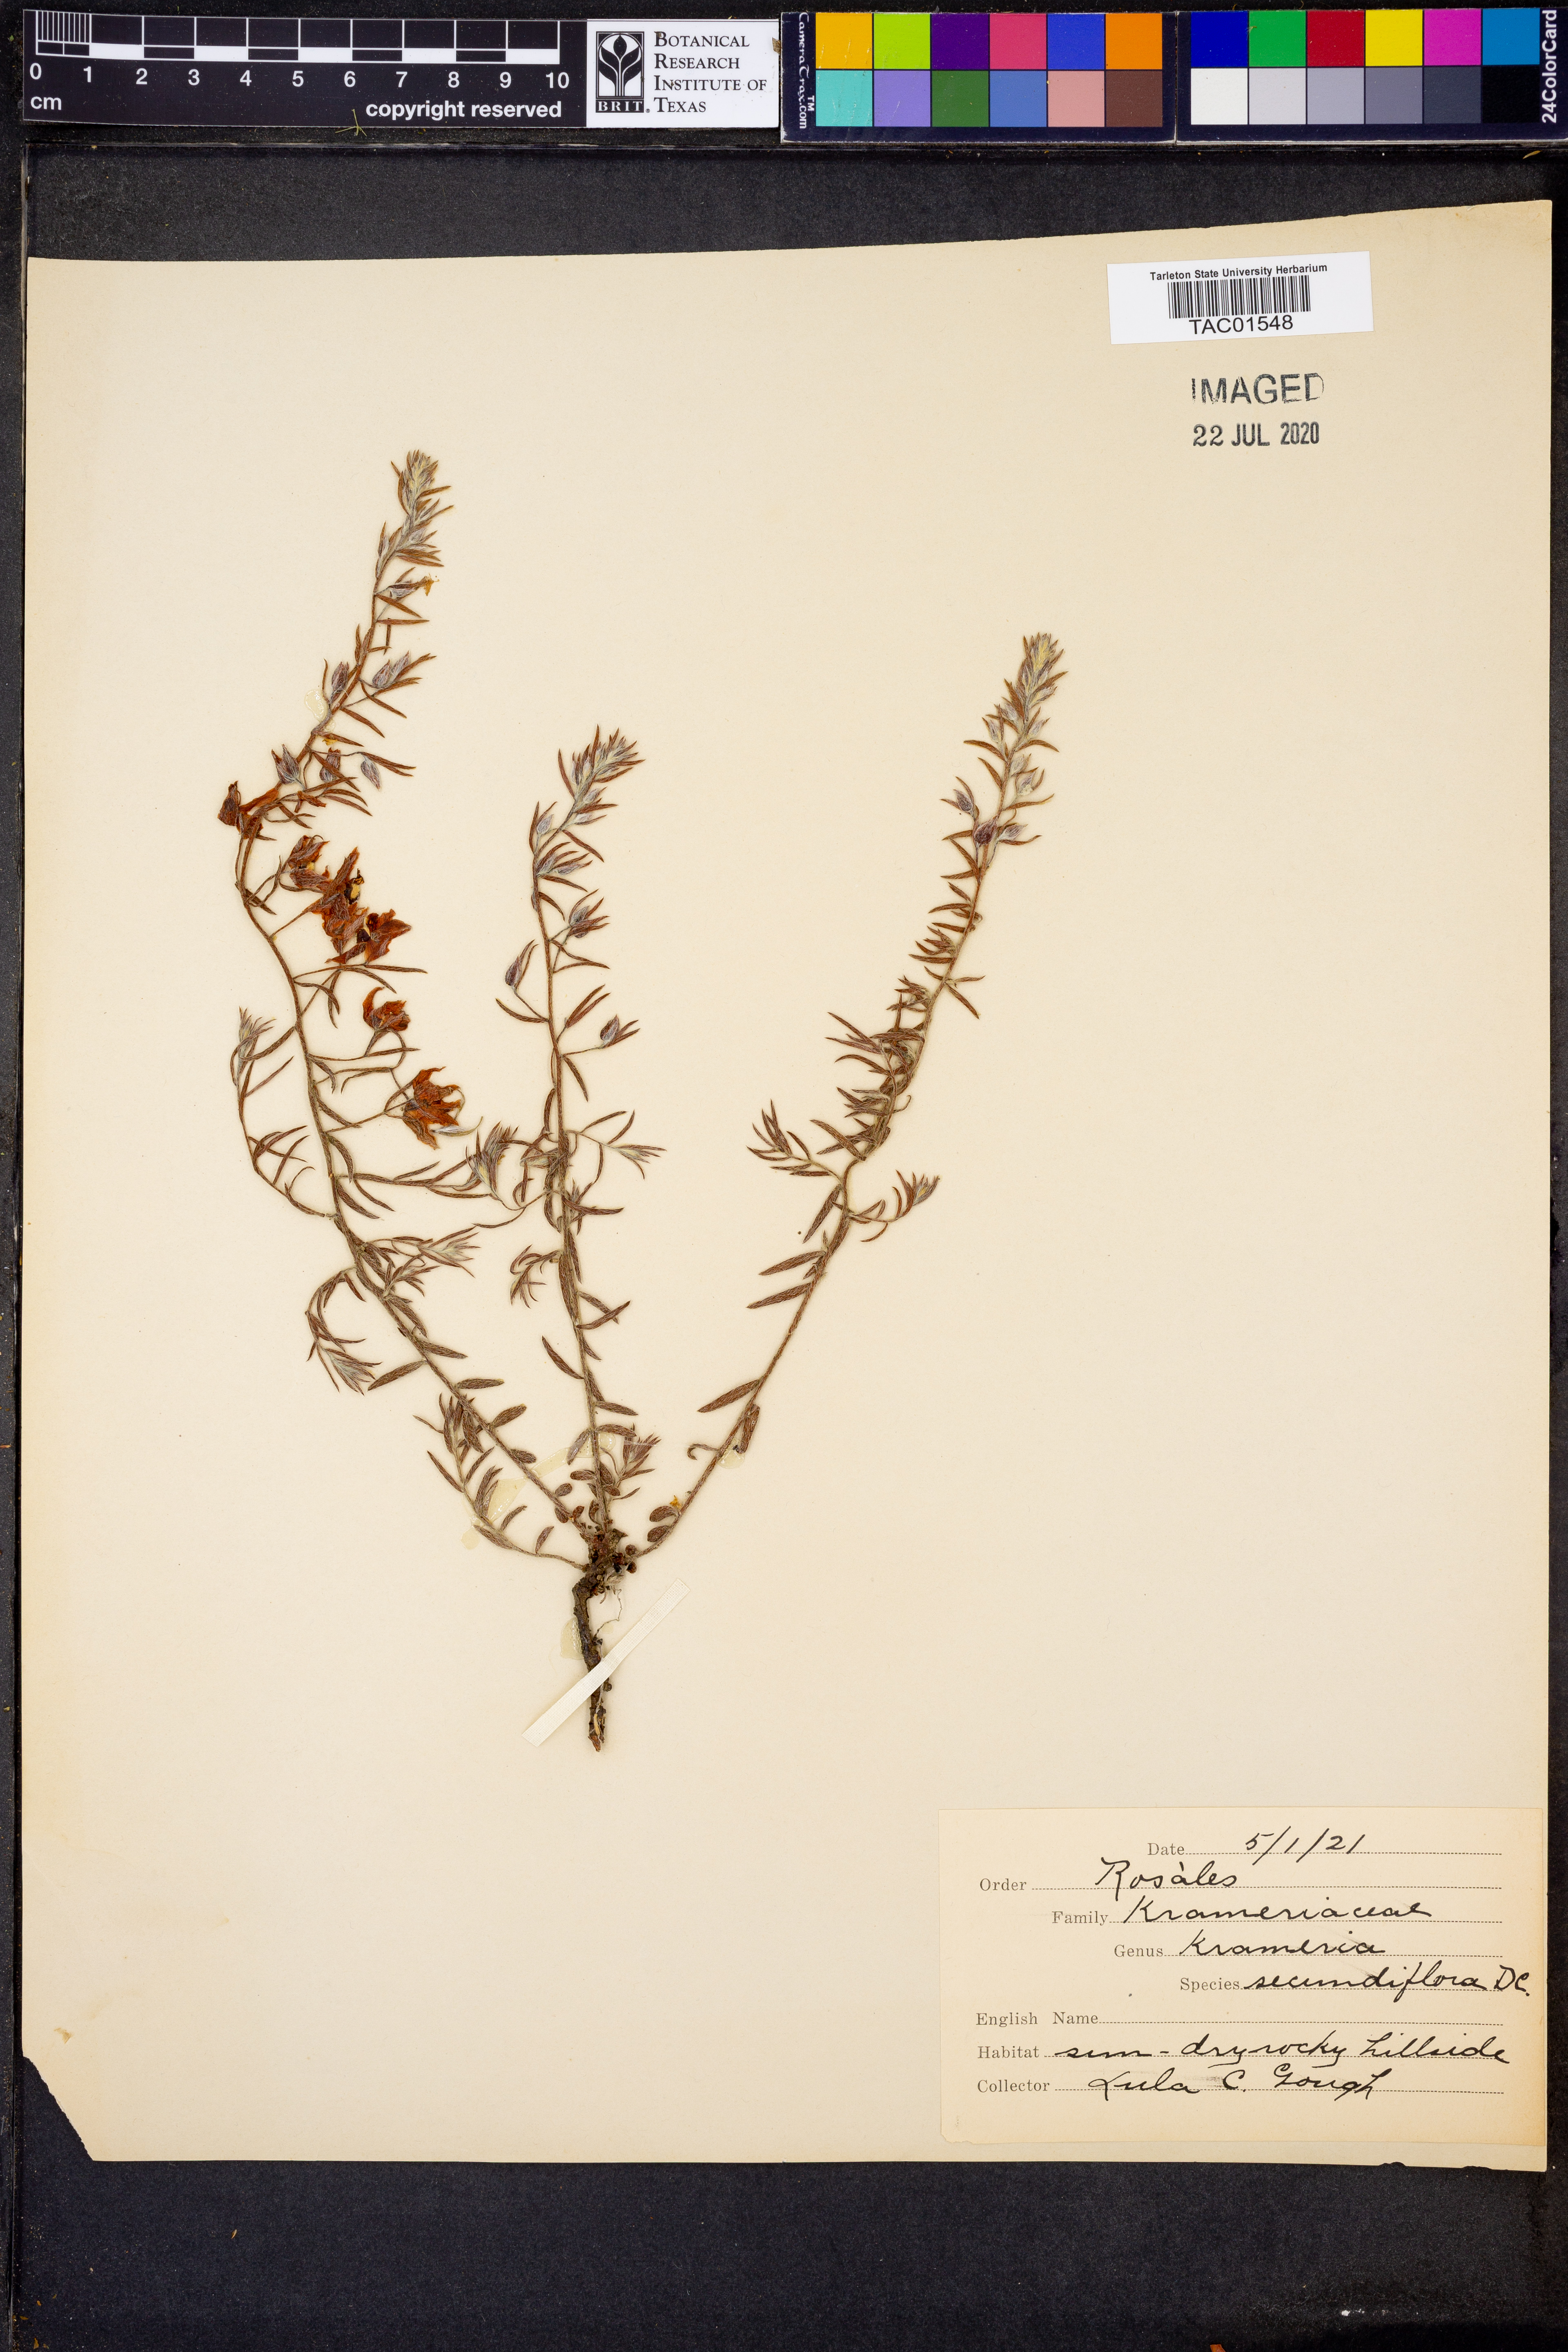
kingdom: Plantae
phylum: Tracheophyta
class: Magnoliopsida
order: Zygophyllales
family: Krameriaceae
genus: Krameria
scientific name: Krameria secundiflora
